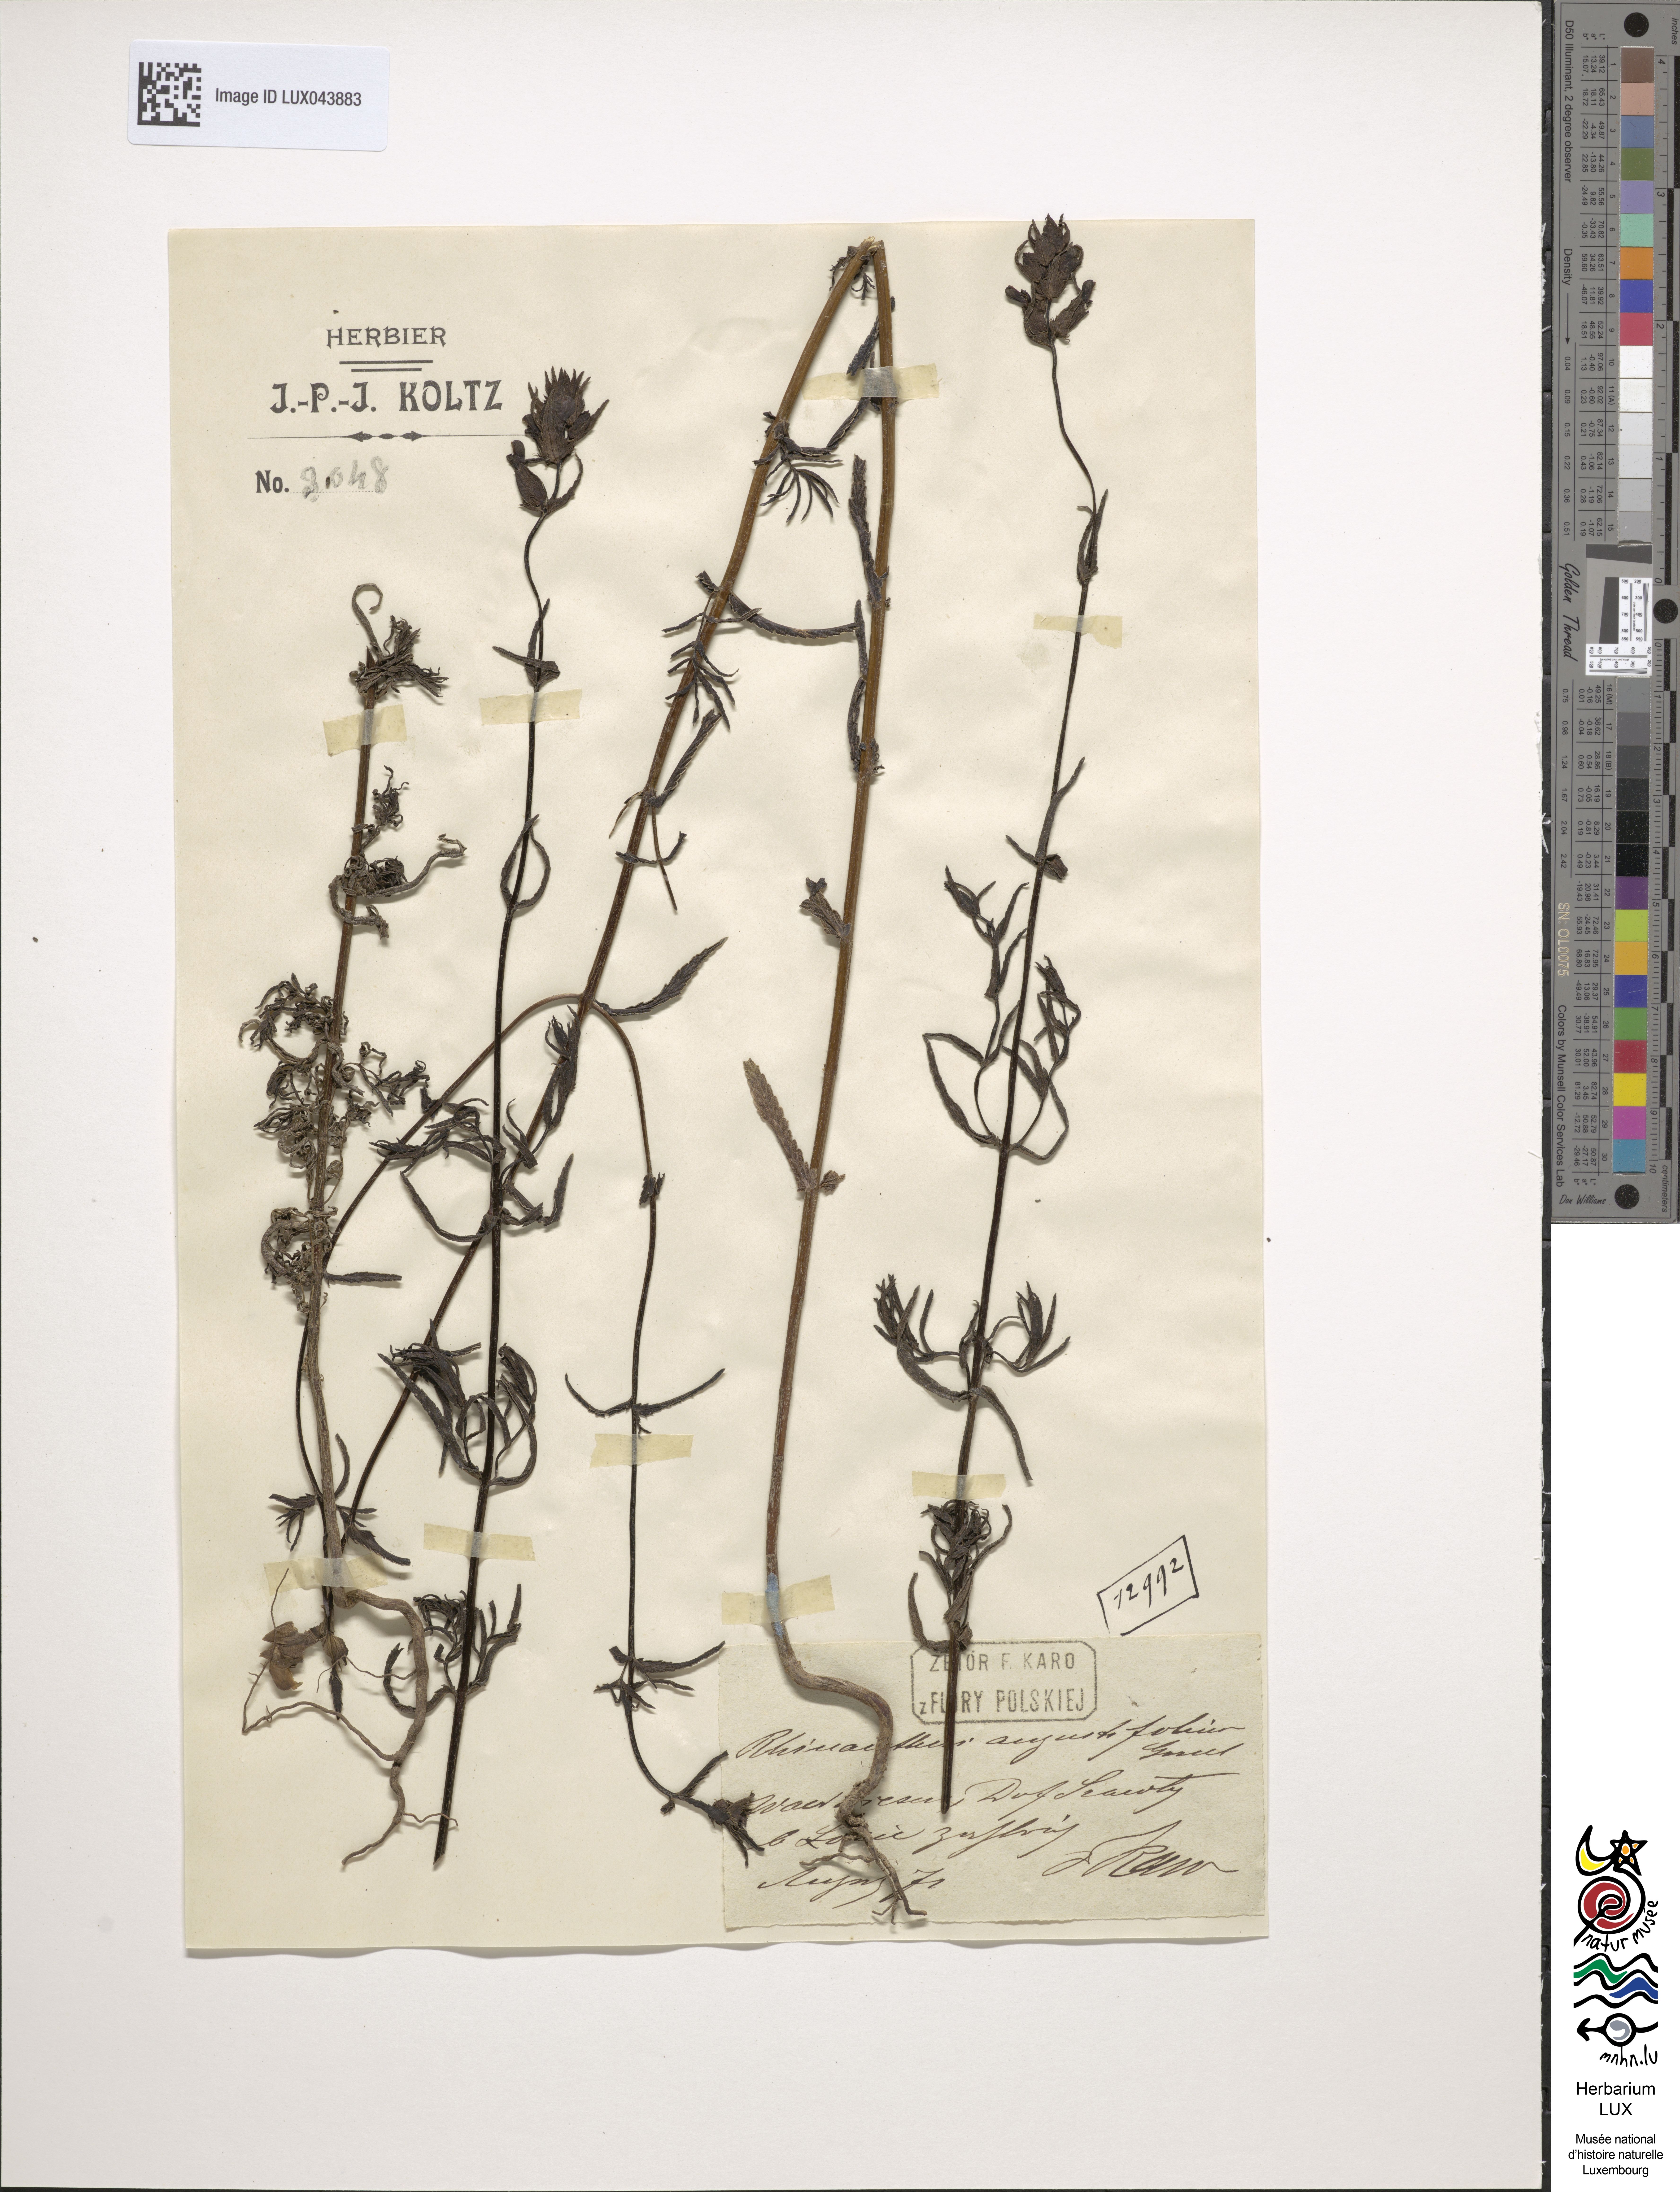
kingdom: Plantae
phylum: Tracheophyta
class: Magnoliopsida
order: Lamiales
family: Orobanchaceae
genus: Rhinanthus
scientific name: Rhinanthus
